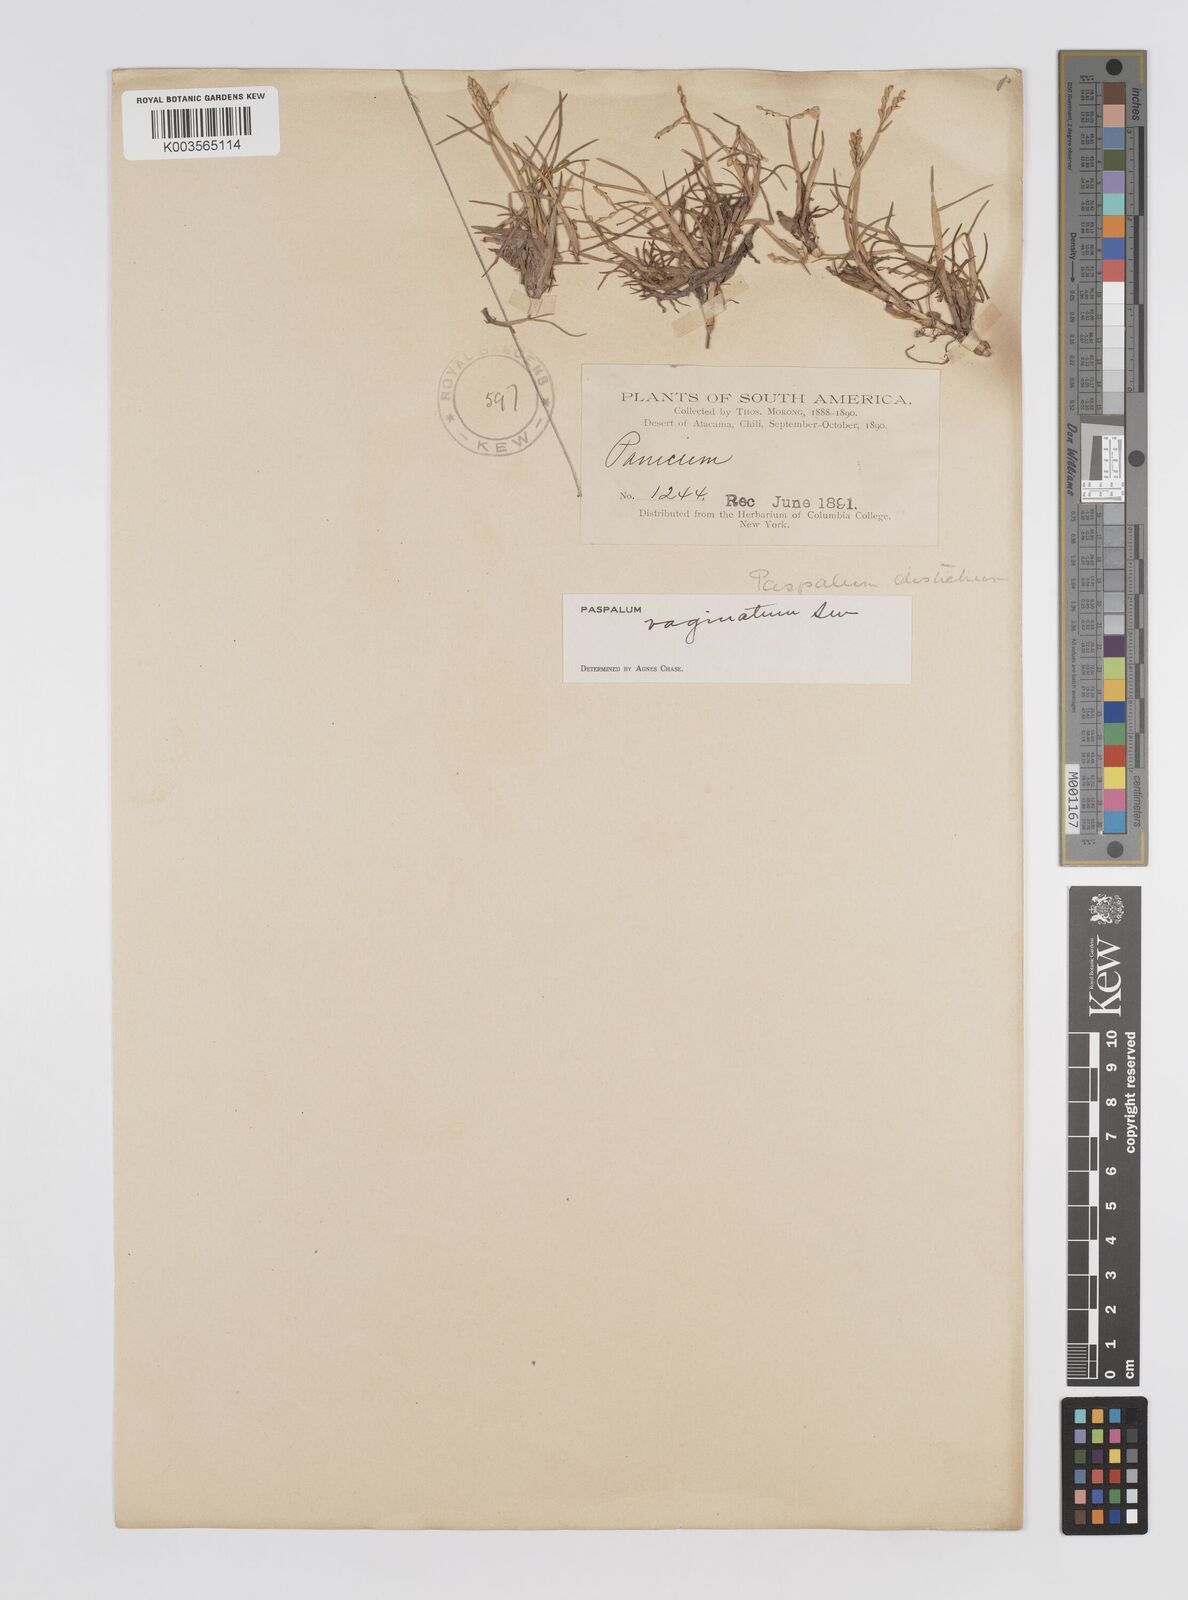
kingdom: Plantae
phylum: Tracheophyta
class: Liliopsida
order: Poales
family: Poaceae
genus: Paspalum
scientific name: Paspalum vaginatum
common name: Seashore paspalum
